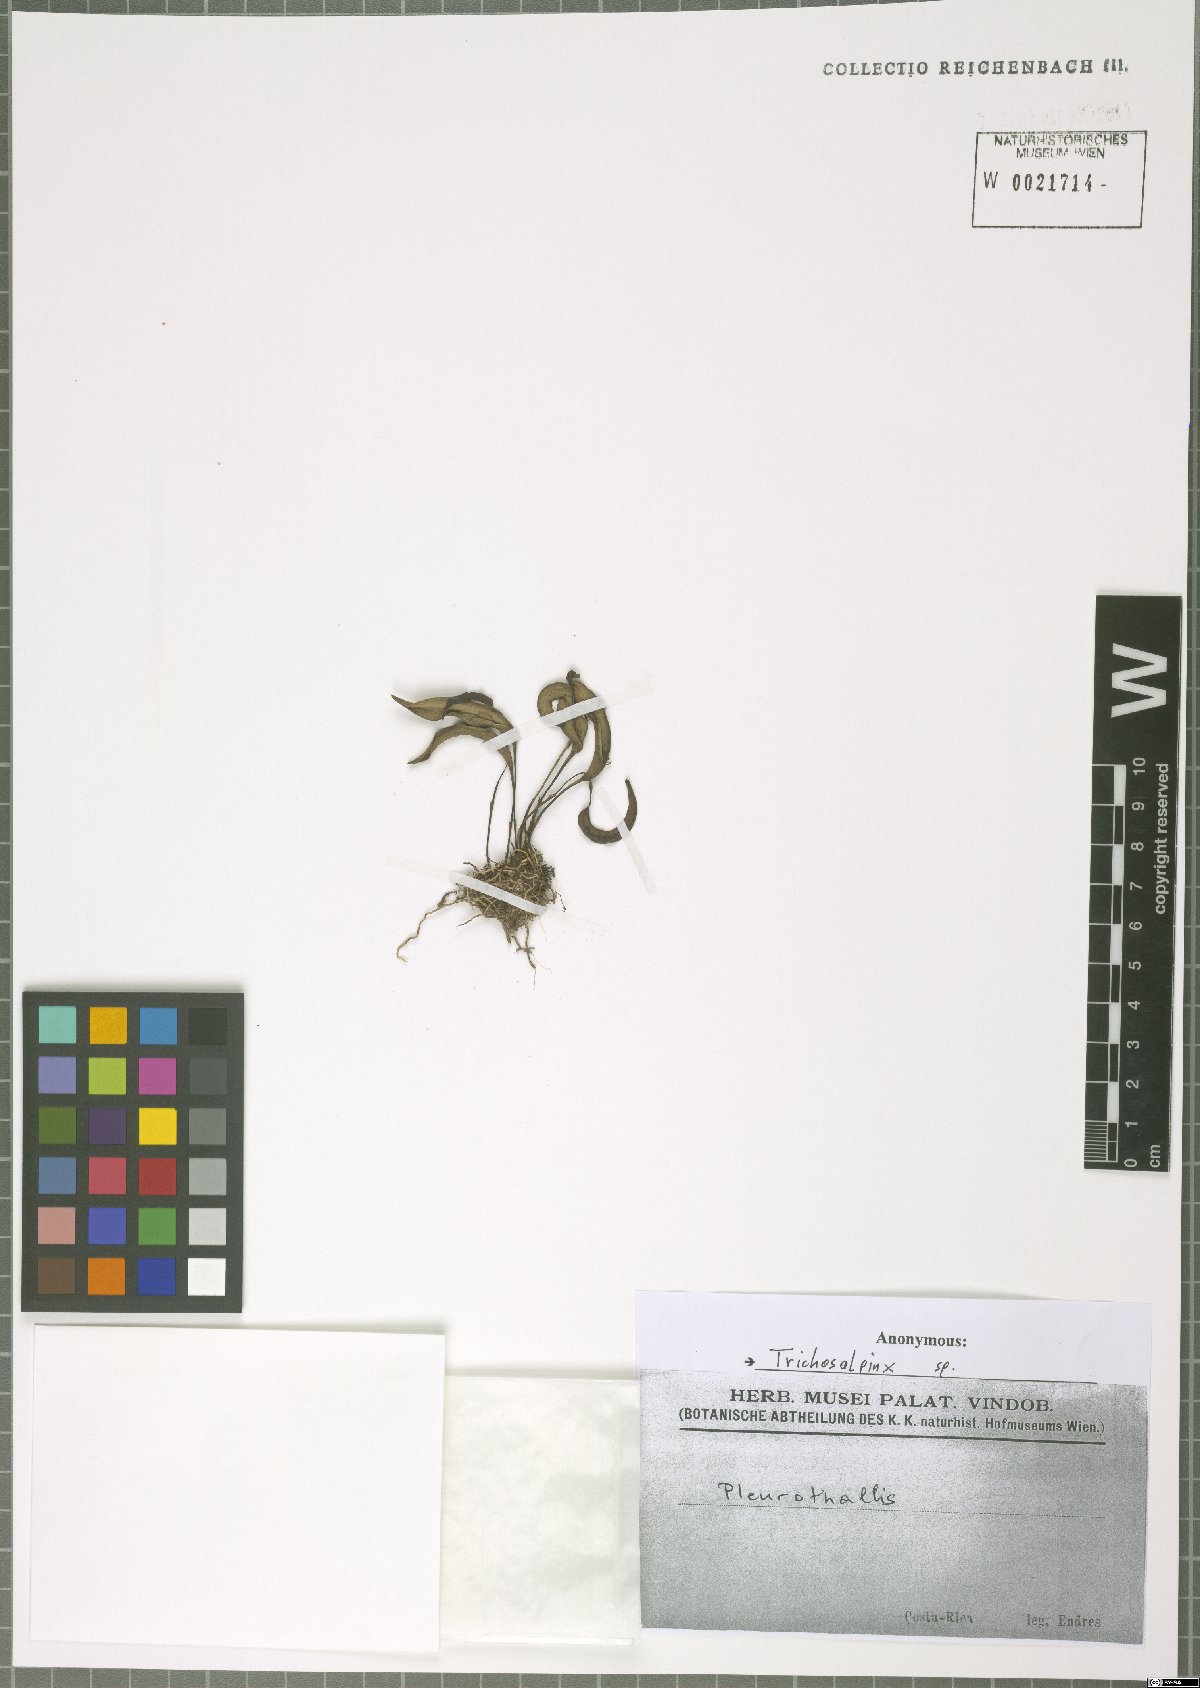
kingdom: Plantae
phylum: Tracheophyta
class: Liliopsida
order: Asparagales
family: Orchidaceae
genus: Trichosalpinx
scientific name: Trichosalpinx
